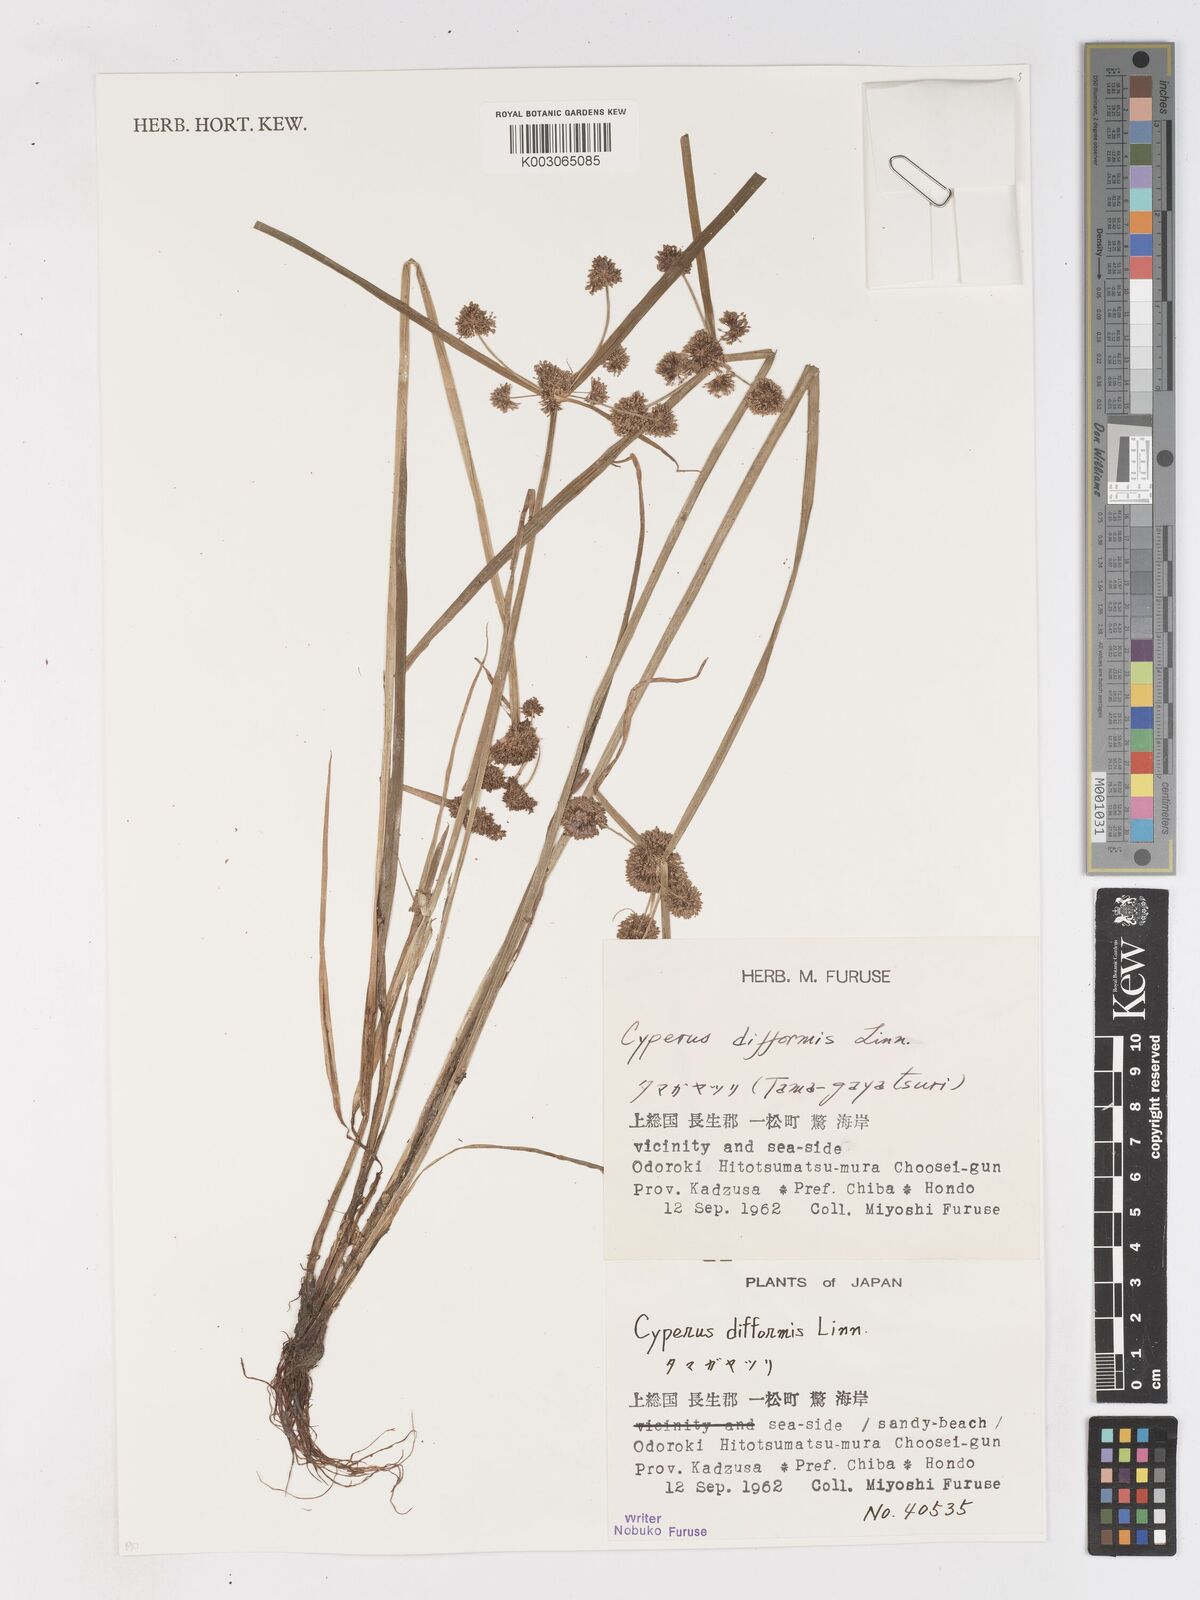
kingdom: Plantae
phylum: Tracheophyta
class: Liliopsida
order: Poales
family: Cyperaceae
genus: Cyperus
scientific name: Cyperus difformis
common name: Variable flatsedge
